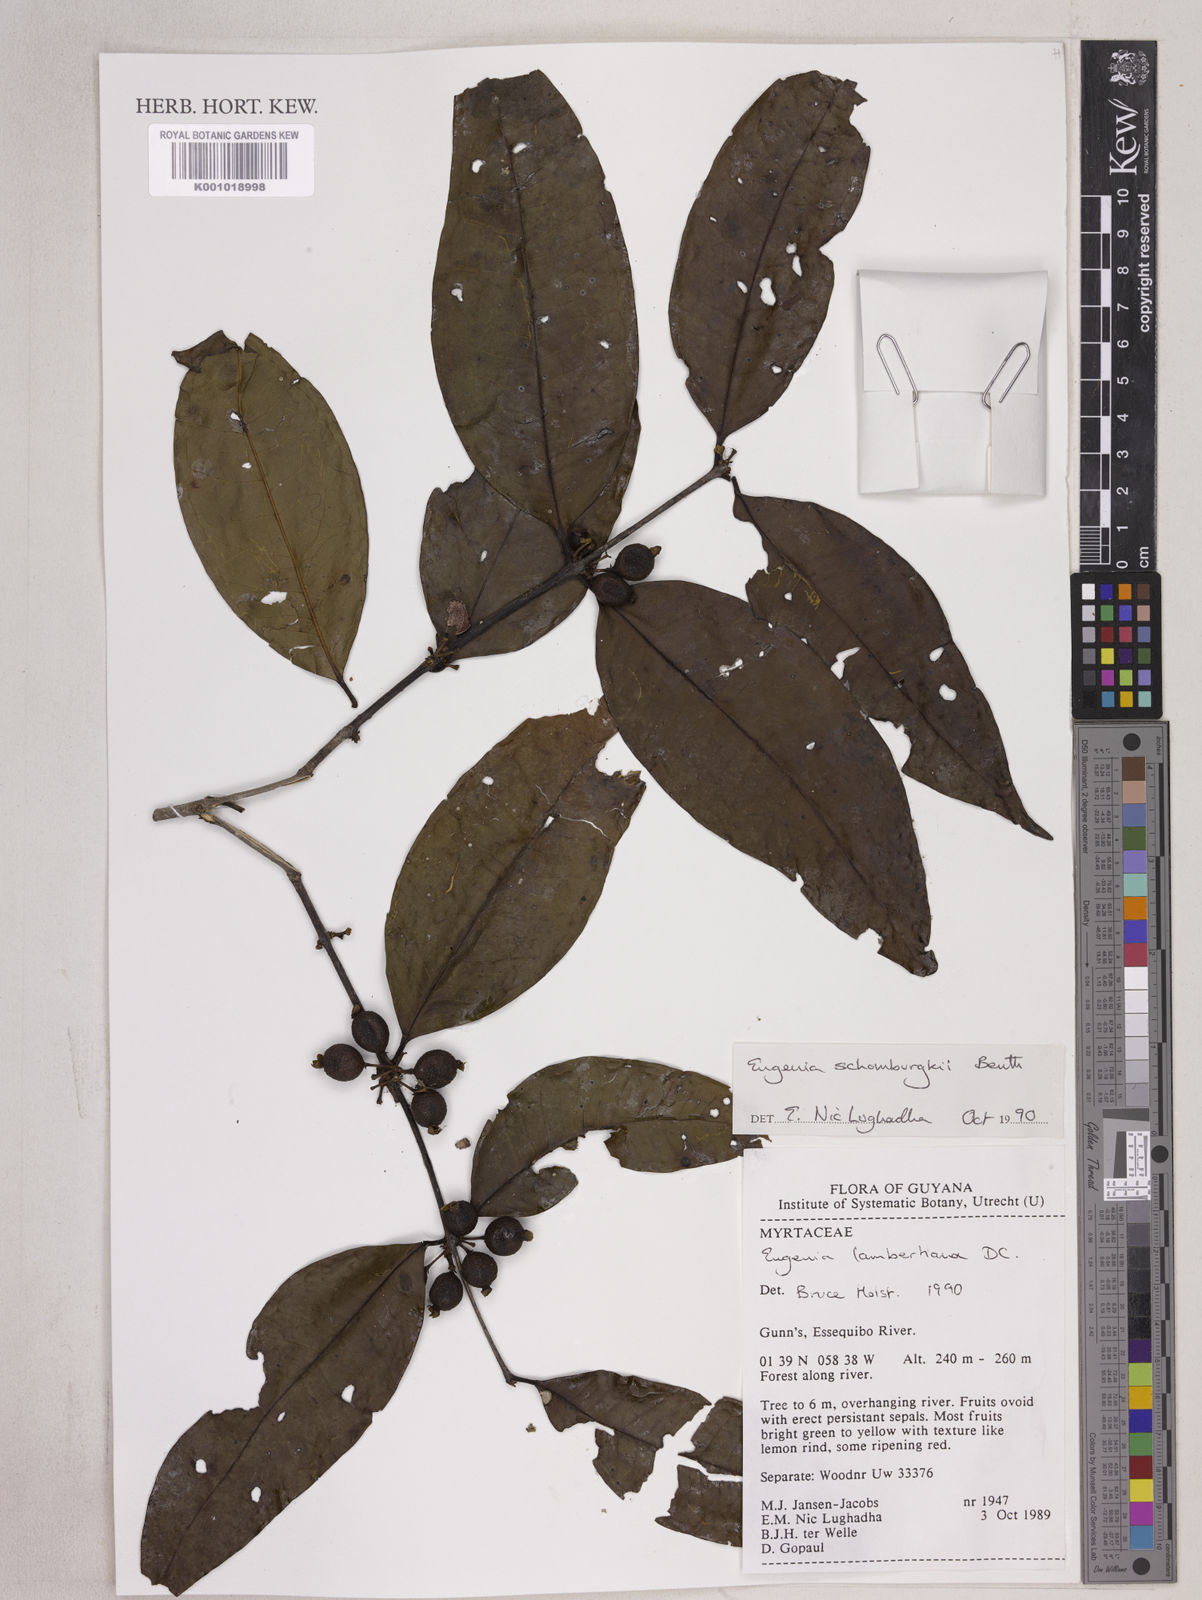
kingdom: Plantae
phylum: Tracheophyta
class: Magnoliopsida
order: Myrtales
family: Myrtaceae
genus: Eugenia
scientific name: Eugenia lambertiana
